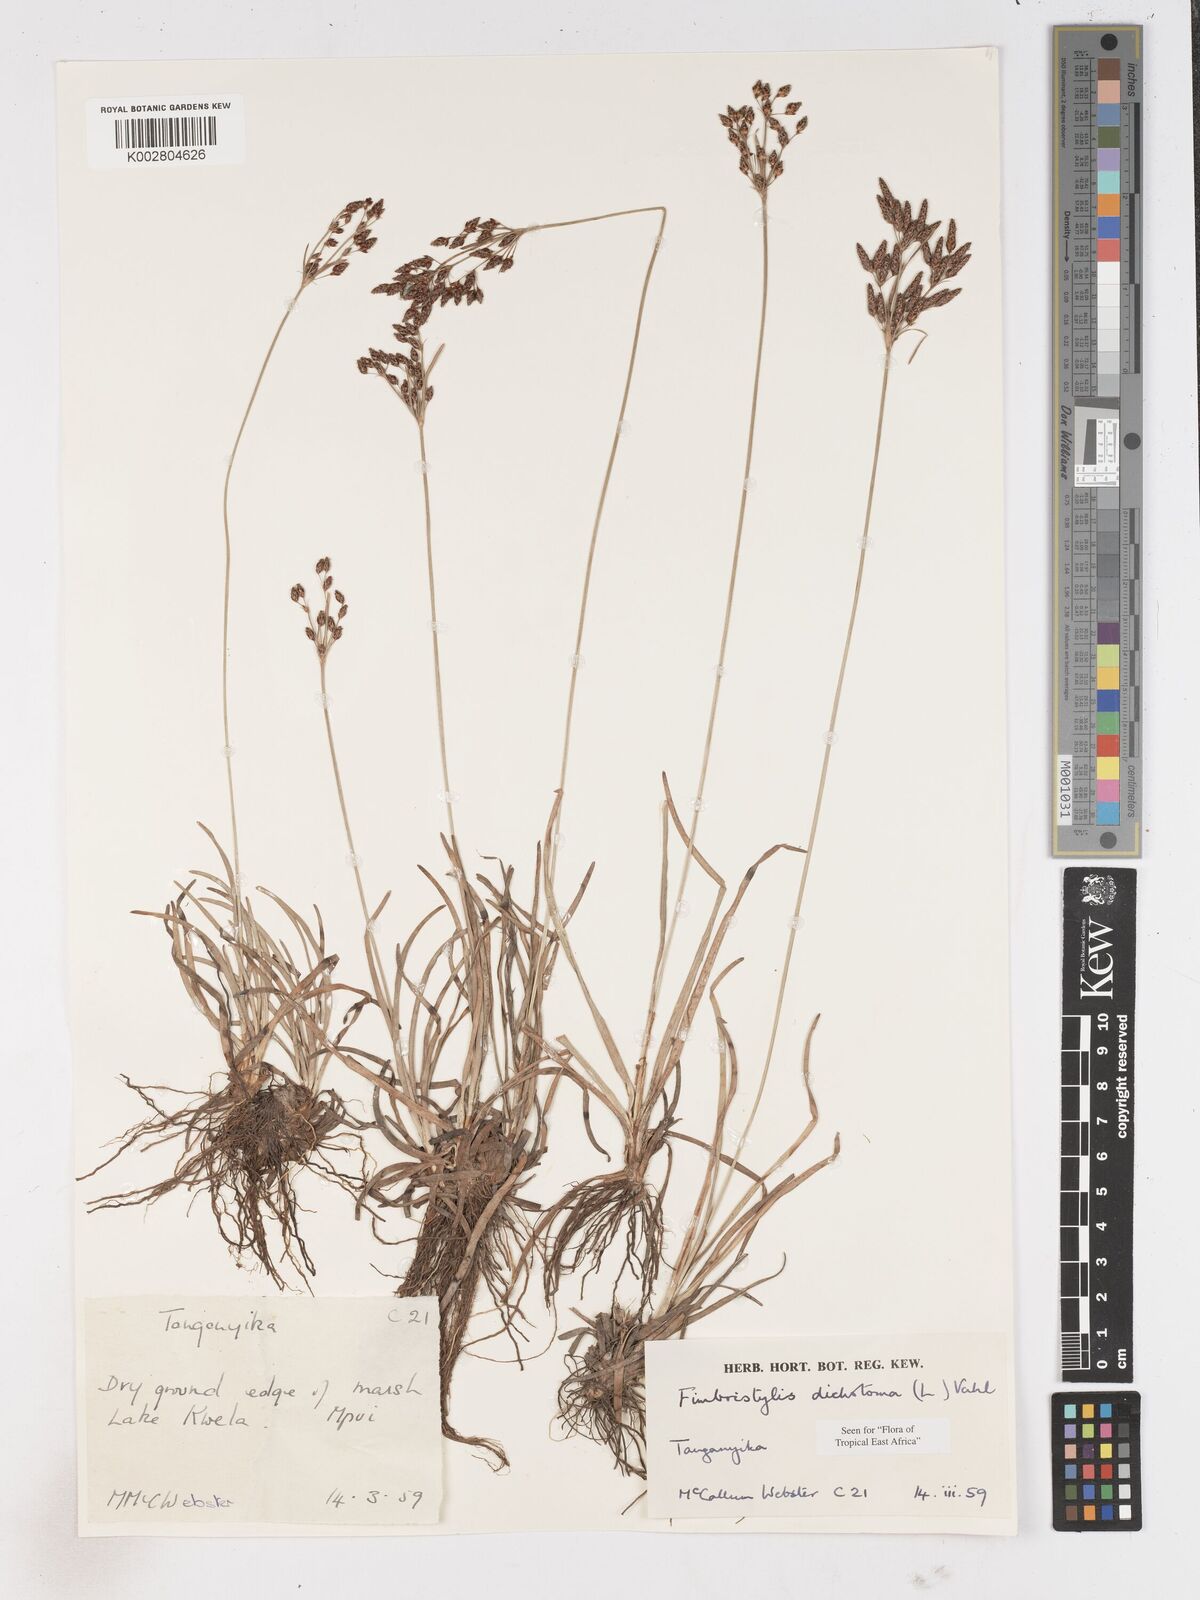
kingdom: Plantae
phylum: Tracheophyta
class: Liliopsida
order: Poales
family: Cyperaceae
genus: Fimbristylis
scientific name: Fimbristylis dichotoma
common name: Forked fimbry
